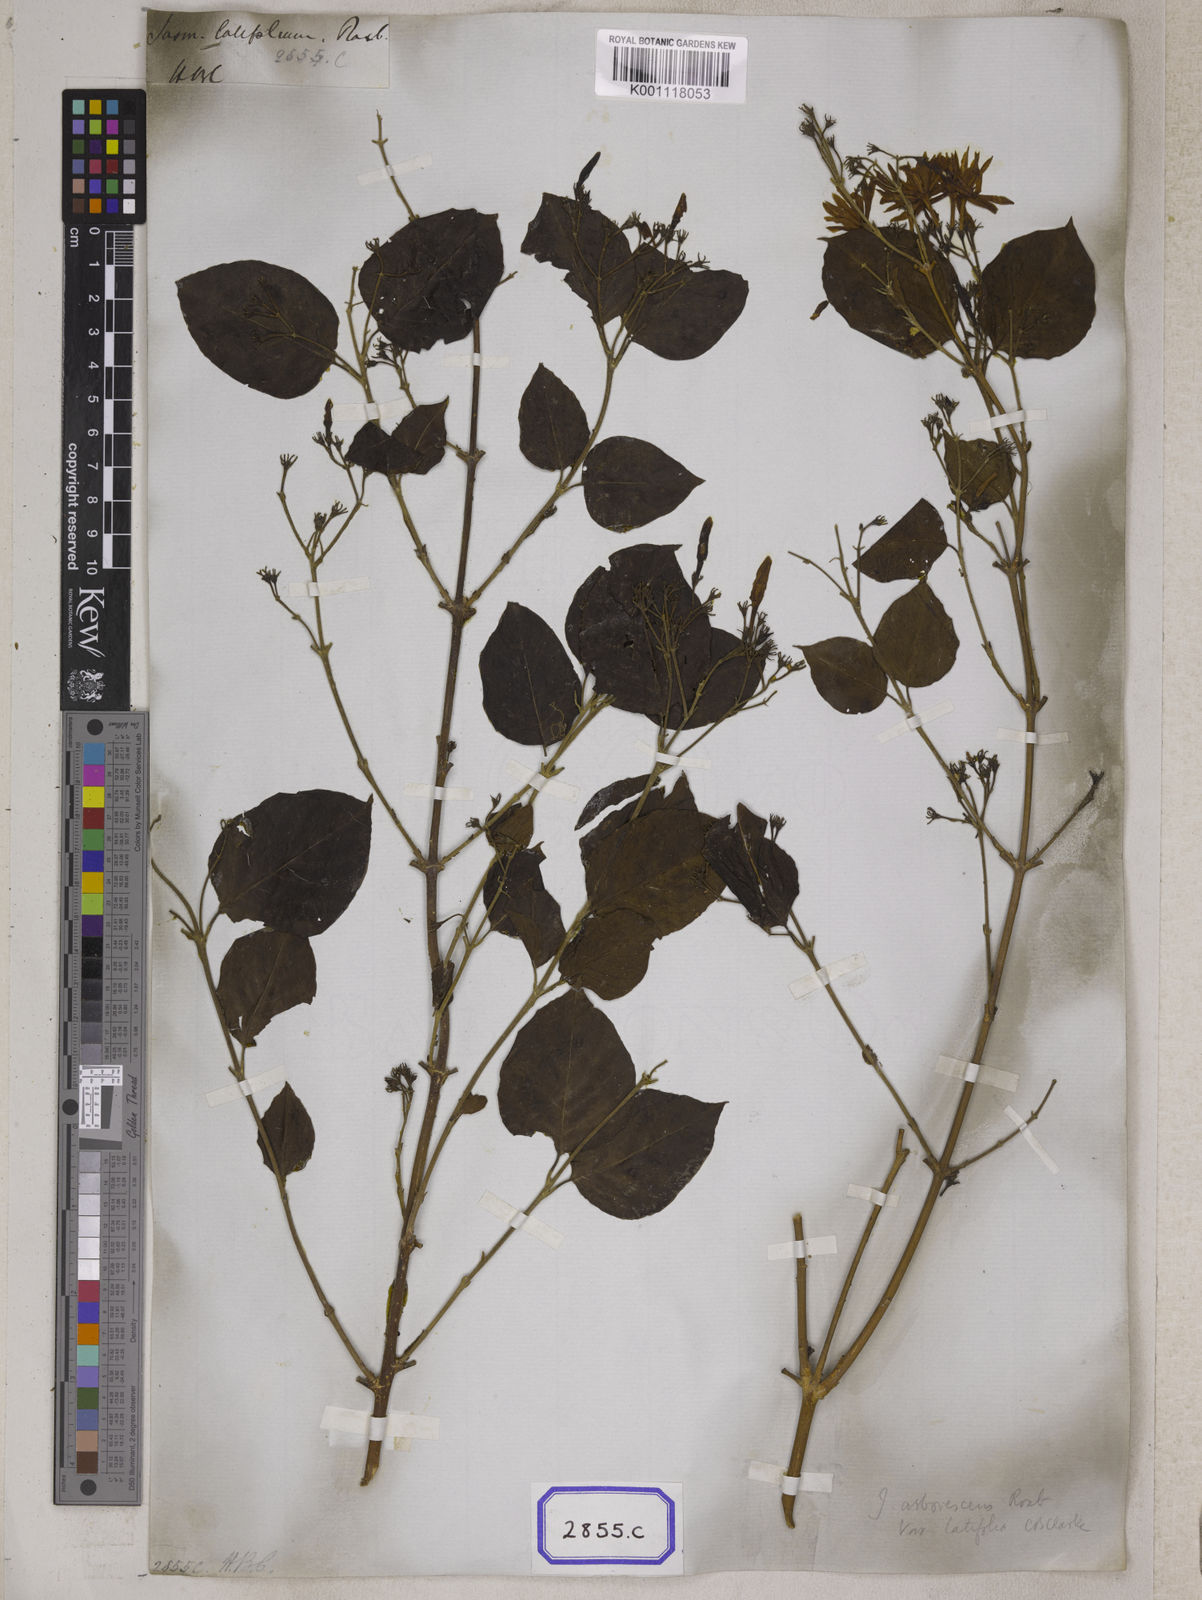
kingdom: Plantae
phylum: Tracheophyta
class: Magnoliopsida
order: Lamiales
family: Oleaceae
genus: Jasminum
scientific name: Jasminum arborescens
